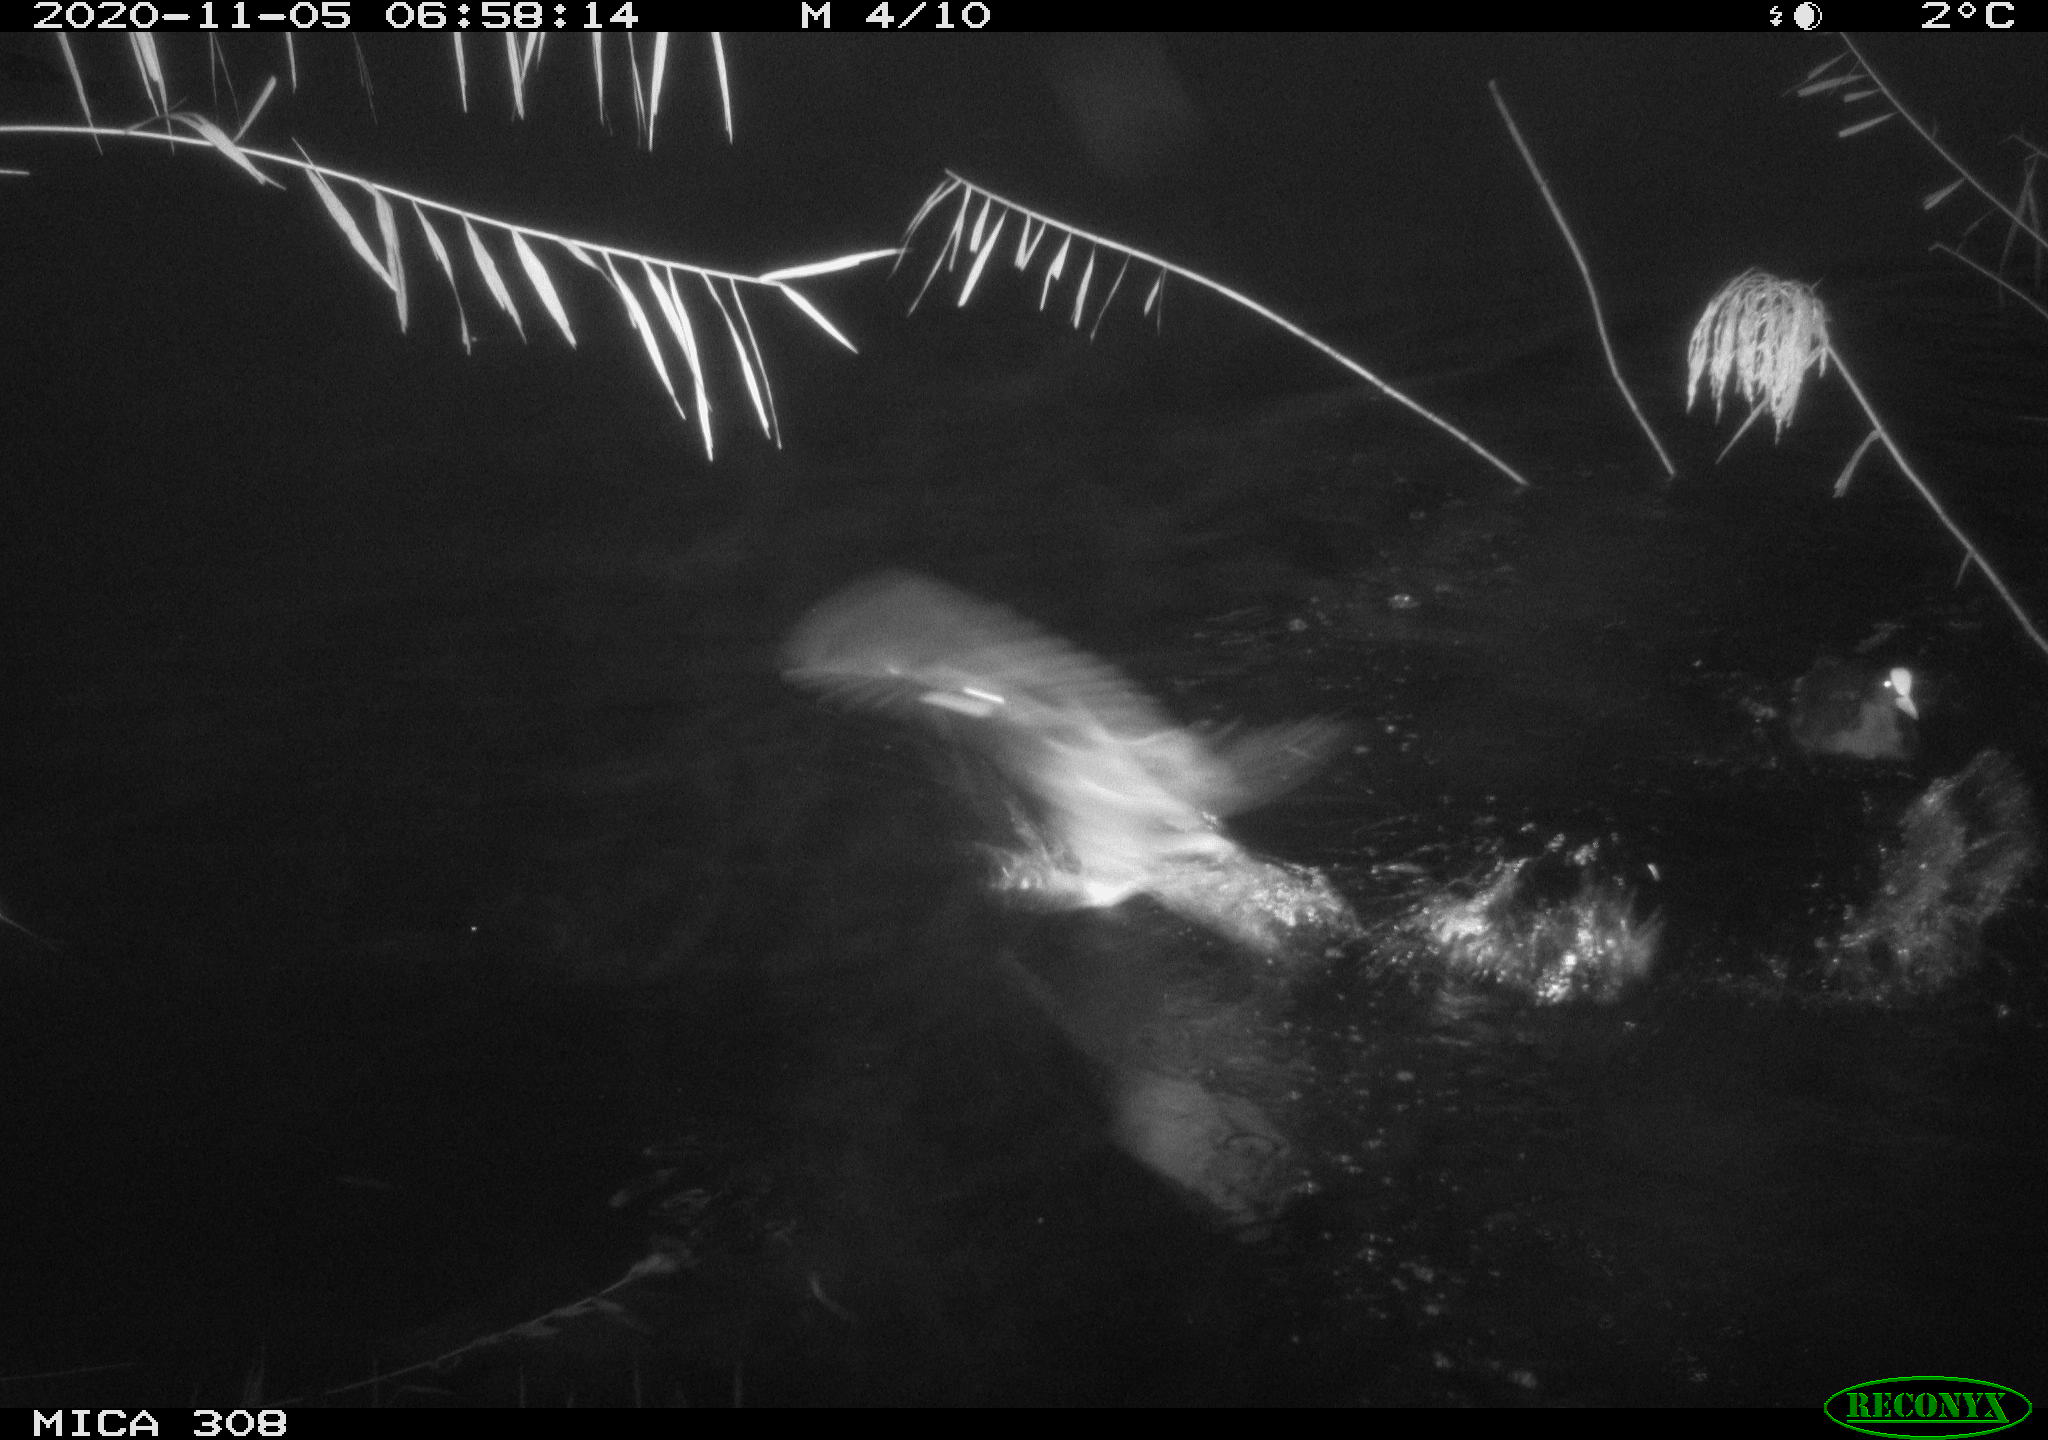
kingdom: Animalia
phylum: Chordata
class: Aves
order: Gruiformes
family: Rallidae
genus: Gallinula
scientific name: Gallinula chloropus
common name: Common moorhen
